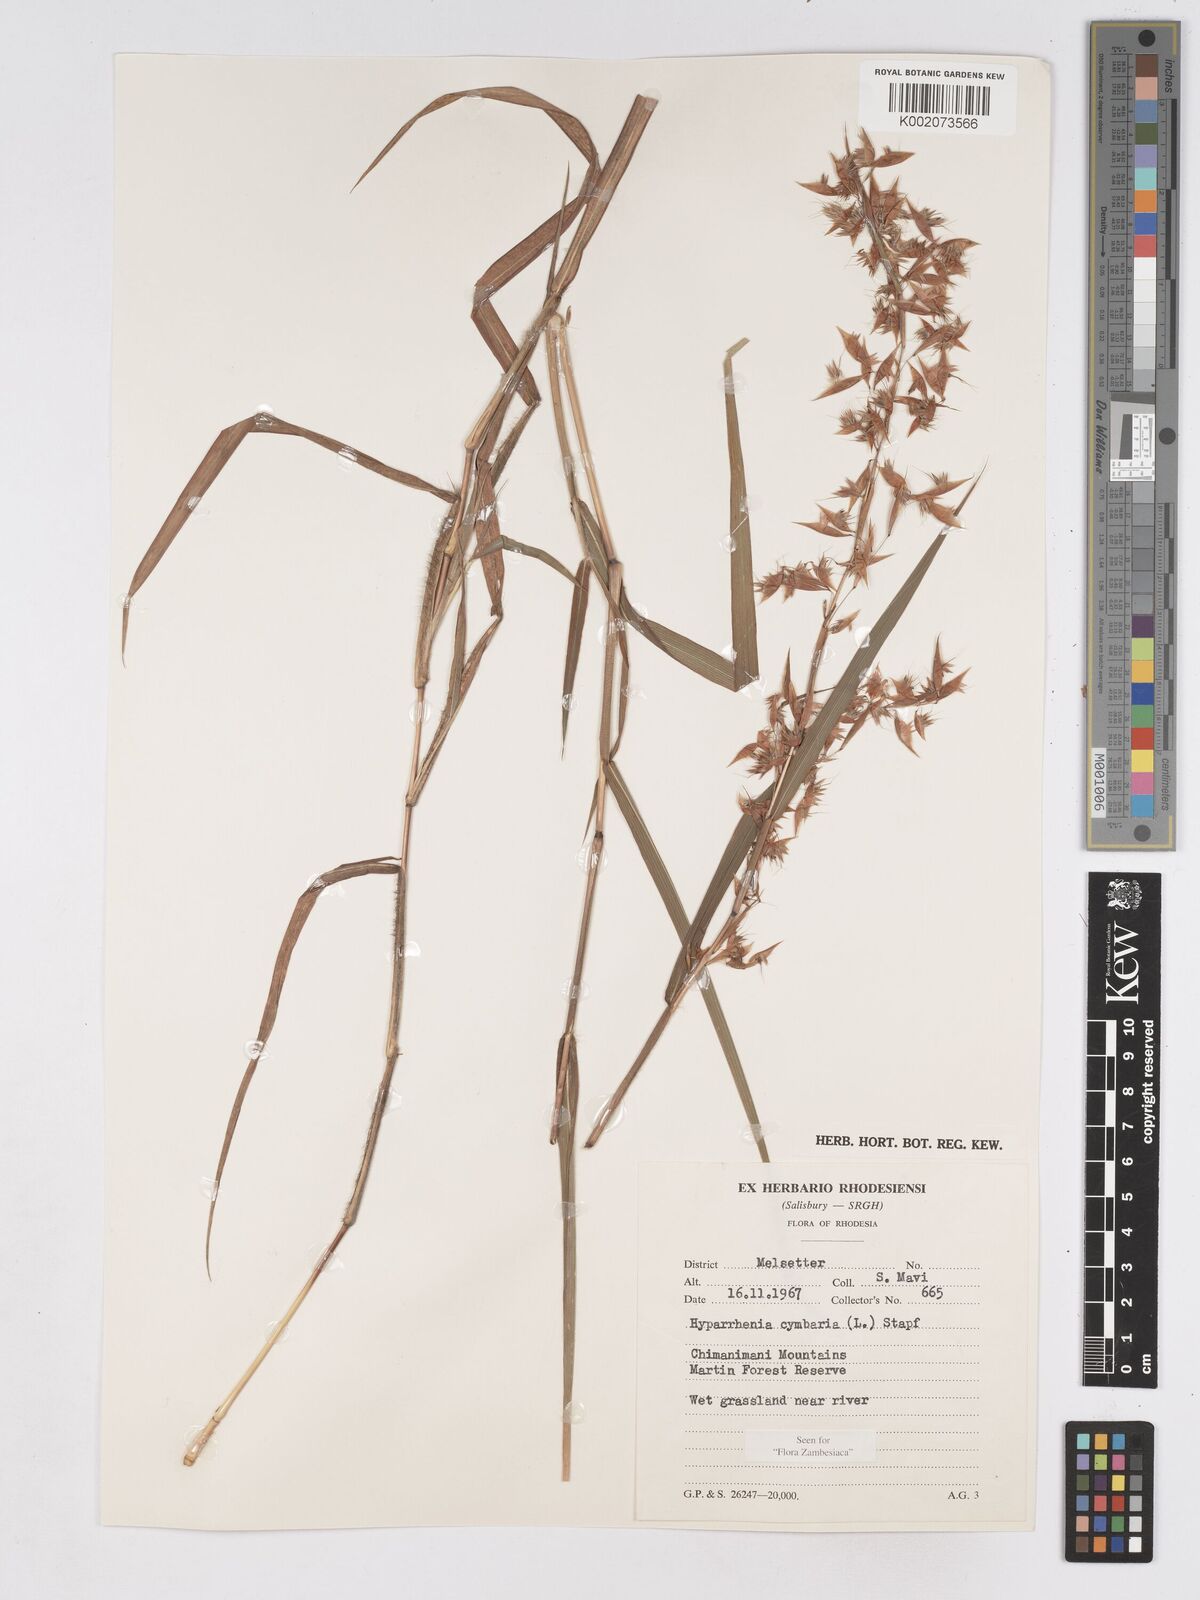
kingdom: Plantae
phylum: Tracheophyta
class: Liliopsida
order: Poales
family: Poaceae
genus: Hyparrhenia
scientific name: Hyparrhenia cymbaria
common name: Boat thatching grass
